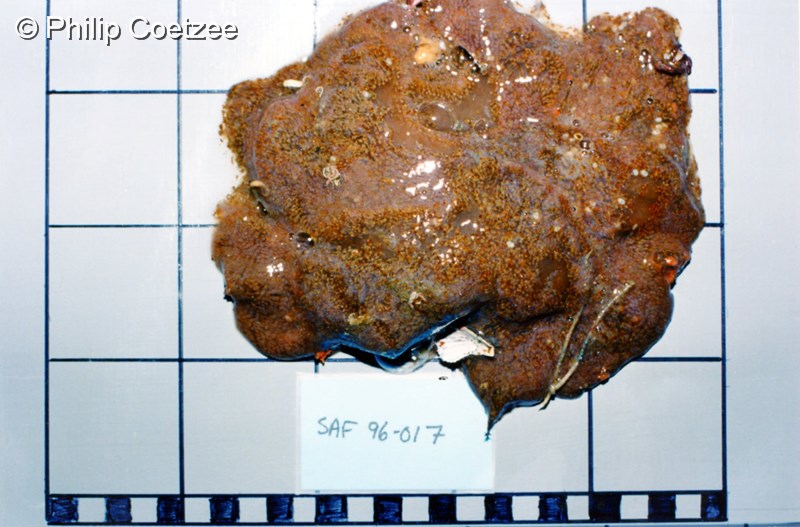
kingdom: Animalia
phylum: Chordata
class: Ascidiacea
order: Aplousobranchia
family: Holozoidae
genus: Distaplia
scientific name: Distaplia
